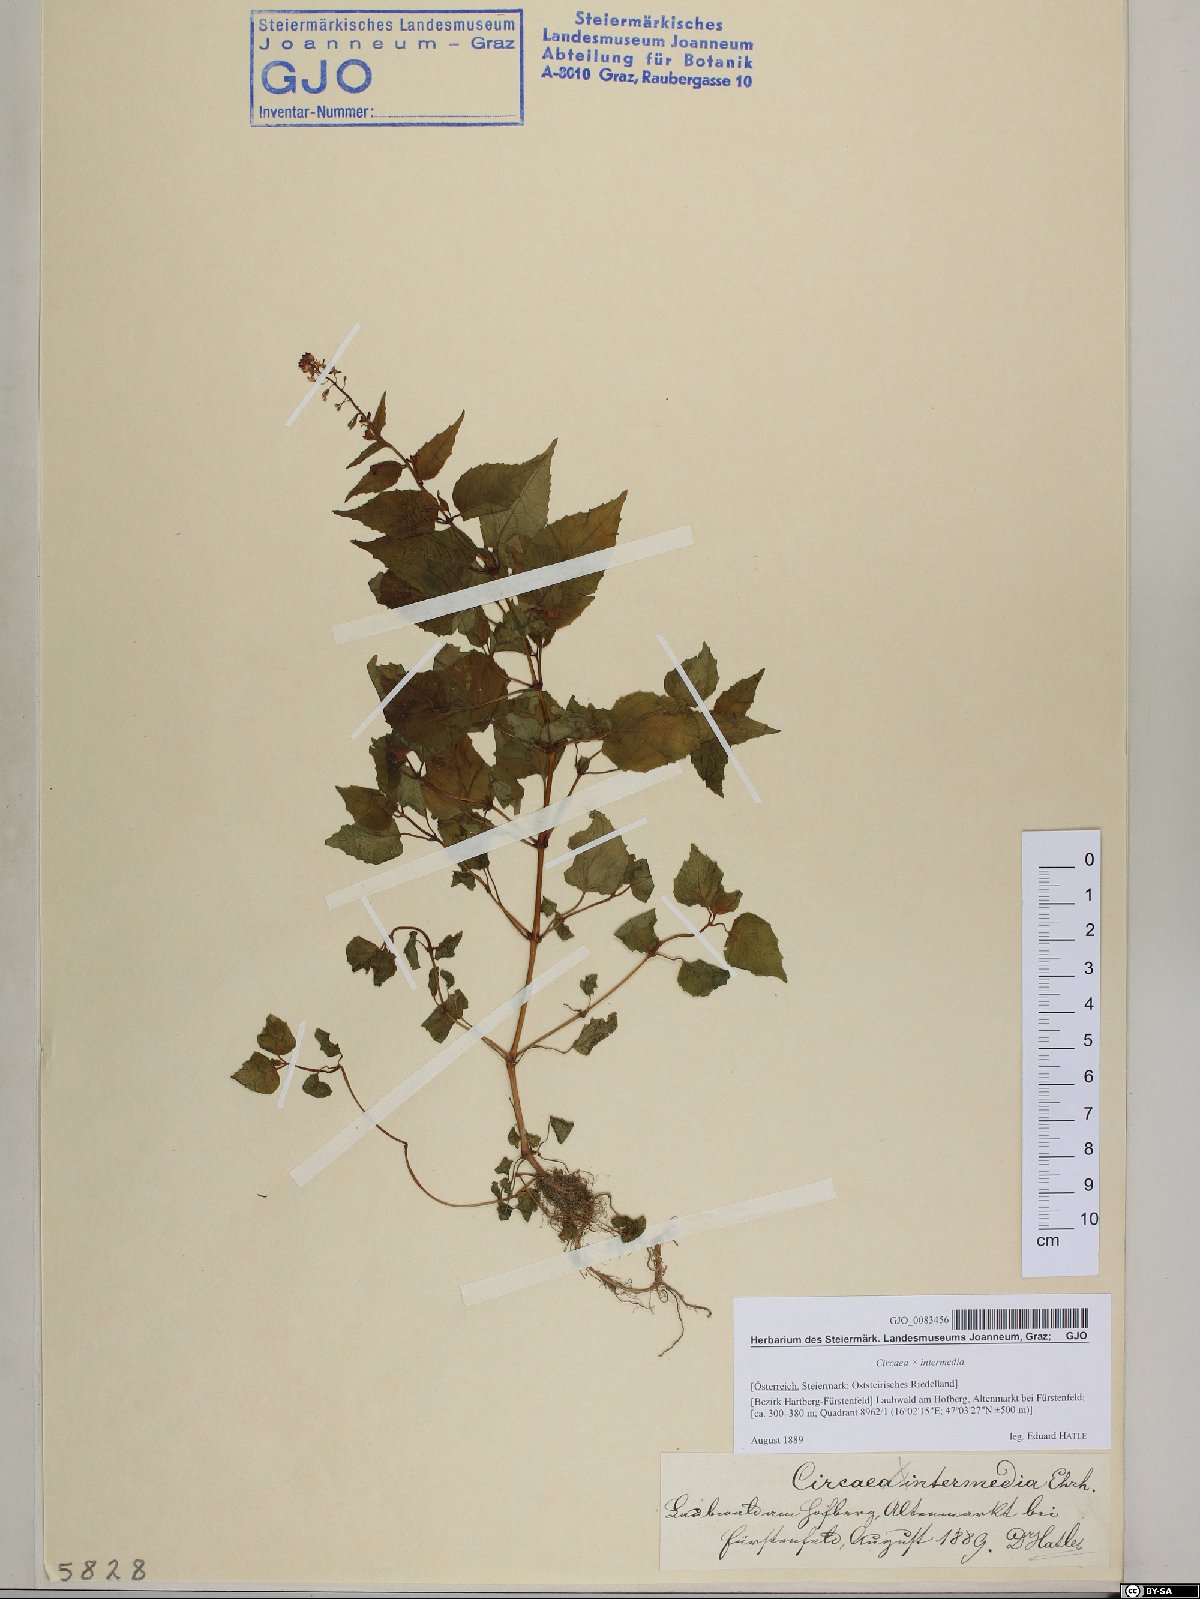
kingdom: Plantae
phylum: Tracheophyta
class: Magnoliopsida
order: Myrtales
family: Onagraceae
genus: Circaea
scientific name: Circaea intermedia
